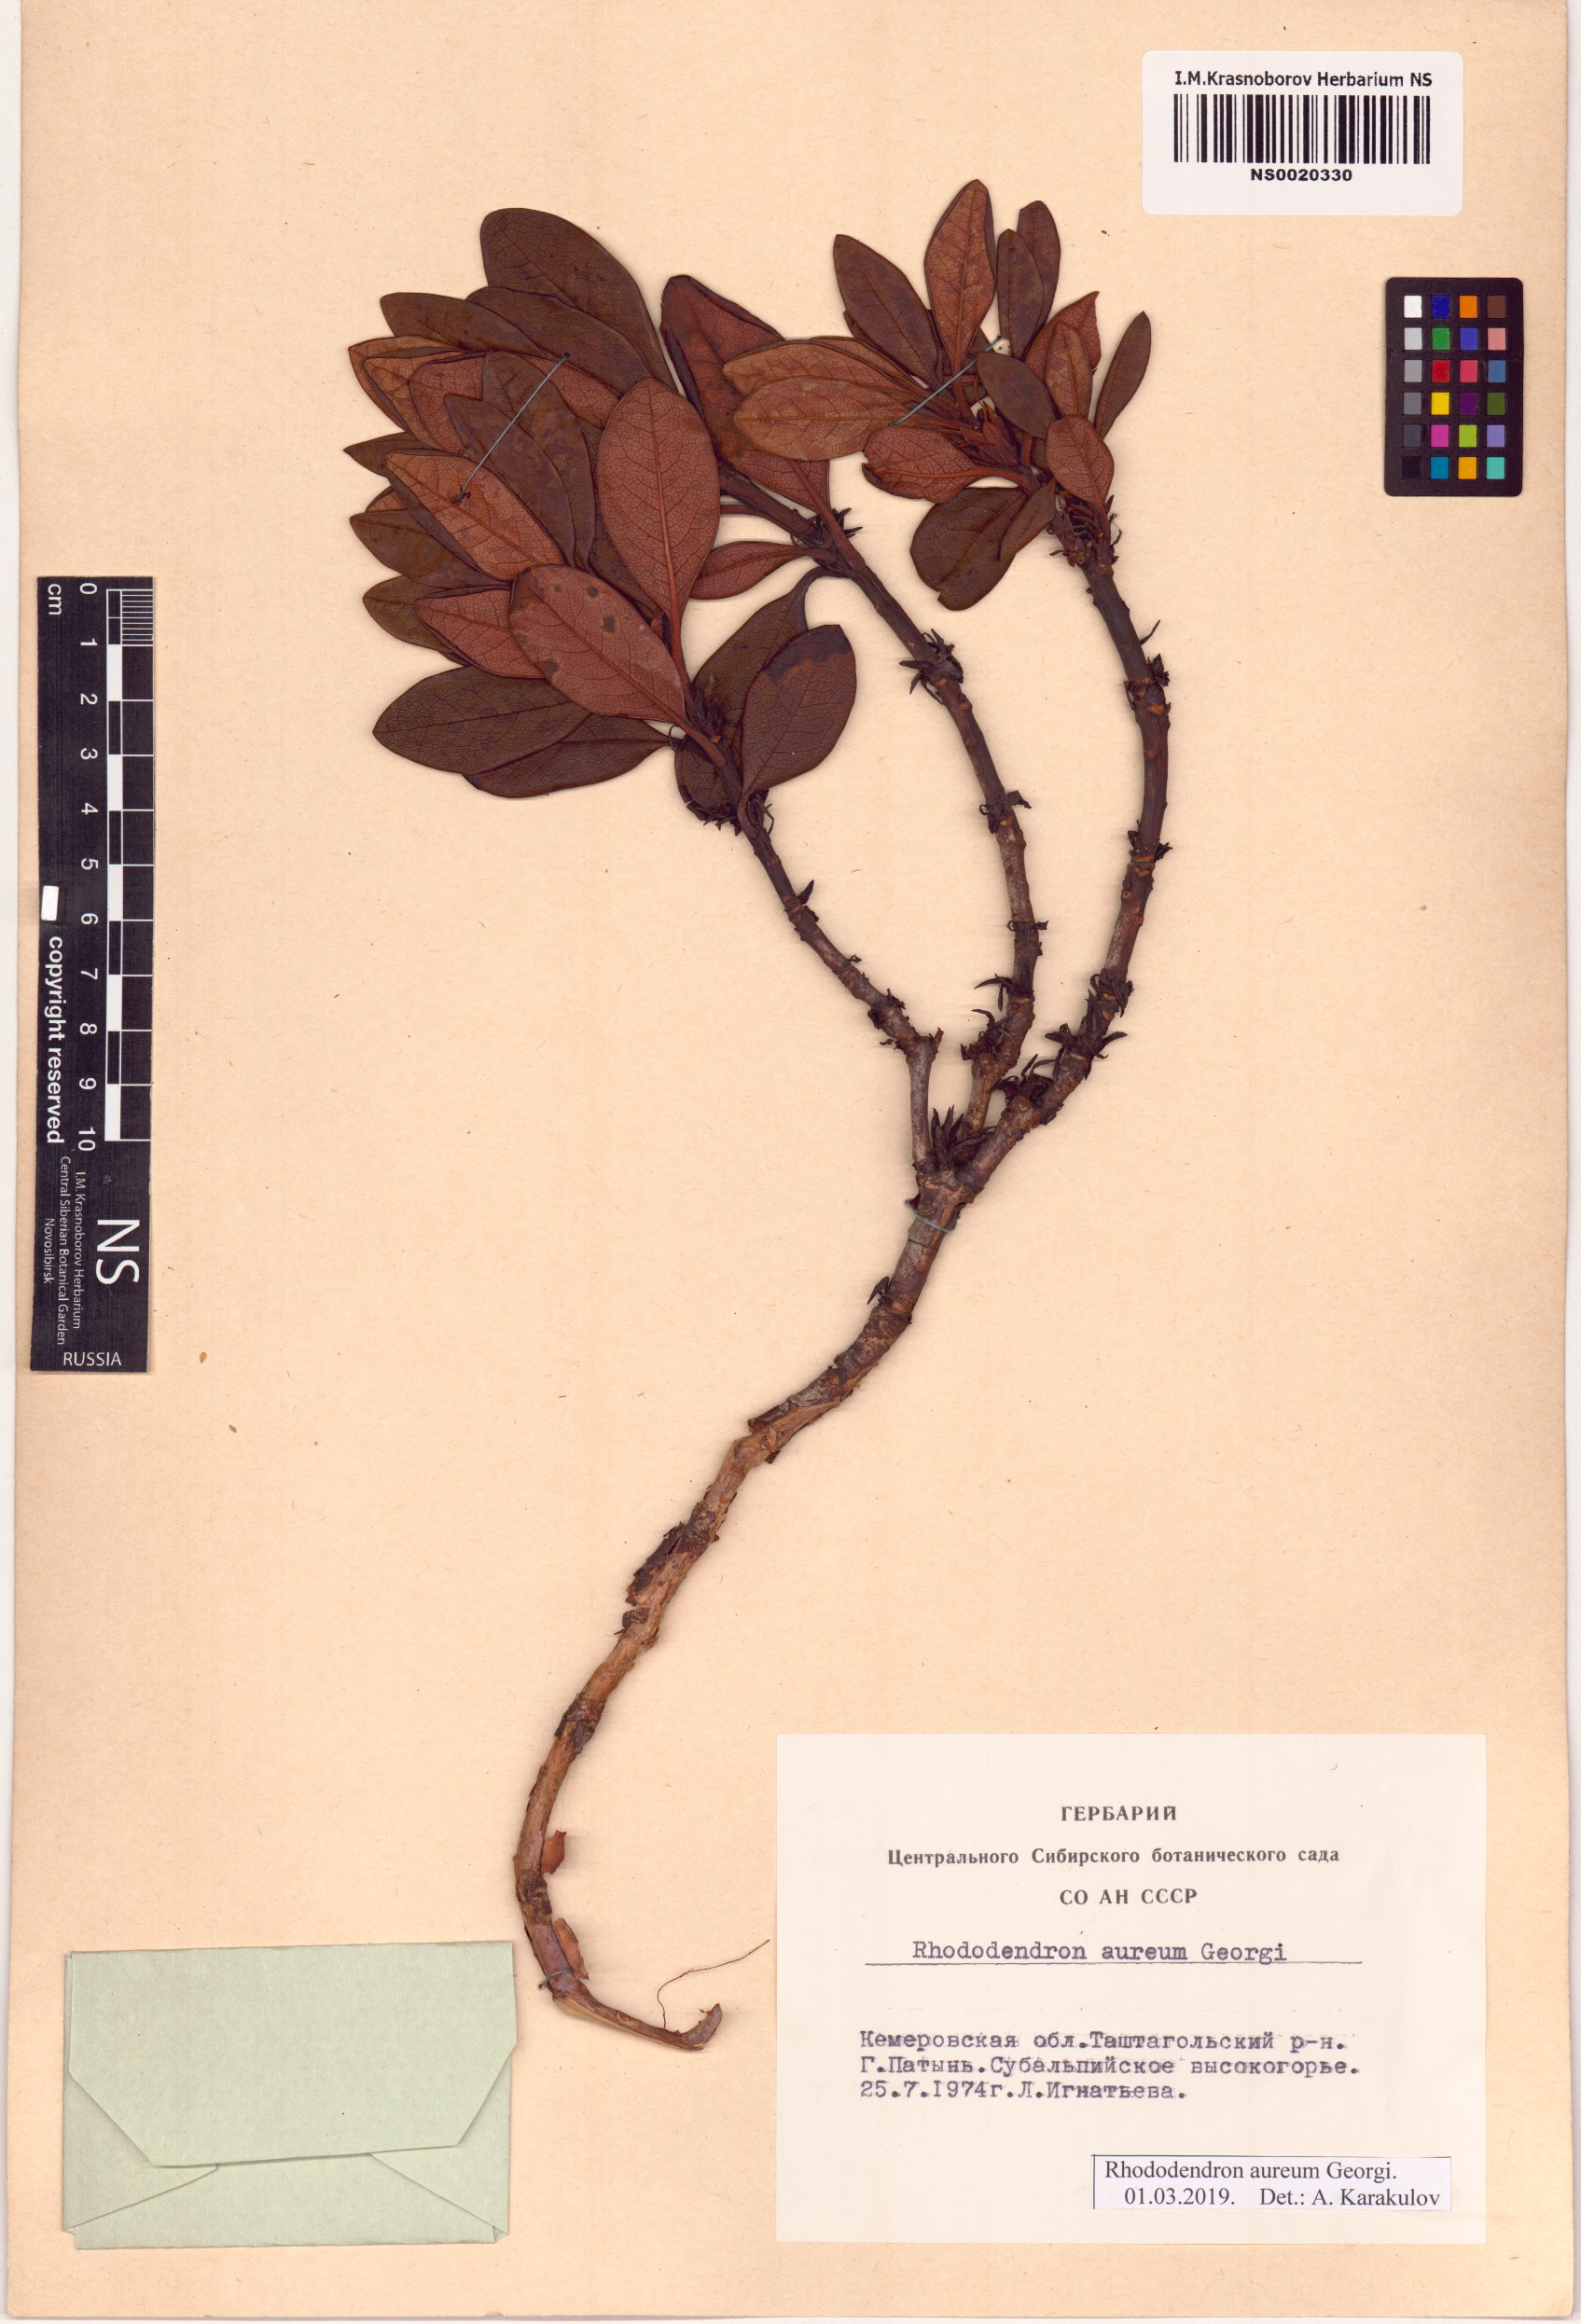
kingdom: Plantae
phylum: Tracheophyta
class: Magnoliopsida
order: Ericales
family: Ericaceae
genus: Rhododendron
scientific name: Rhododendron aureum
